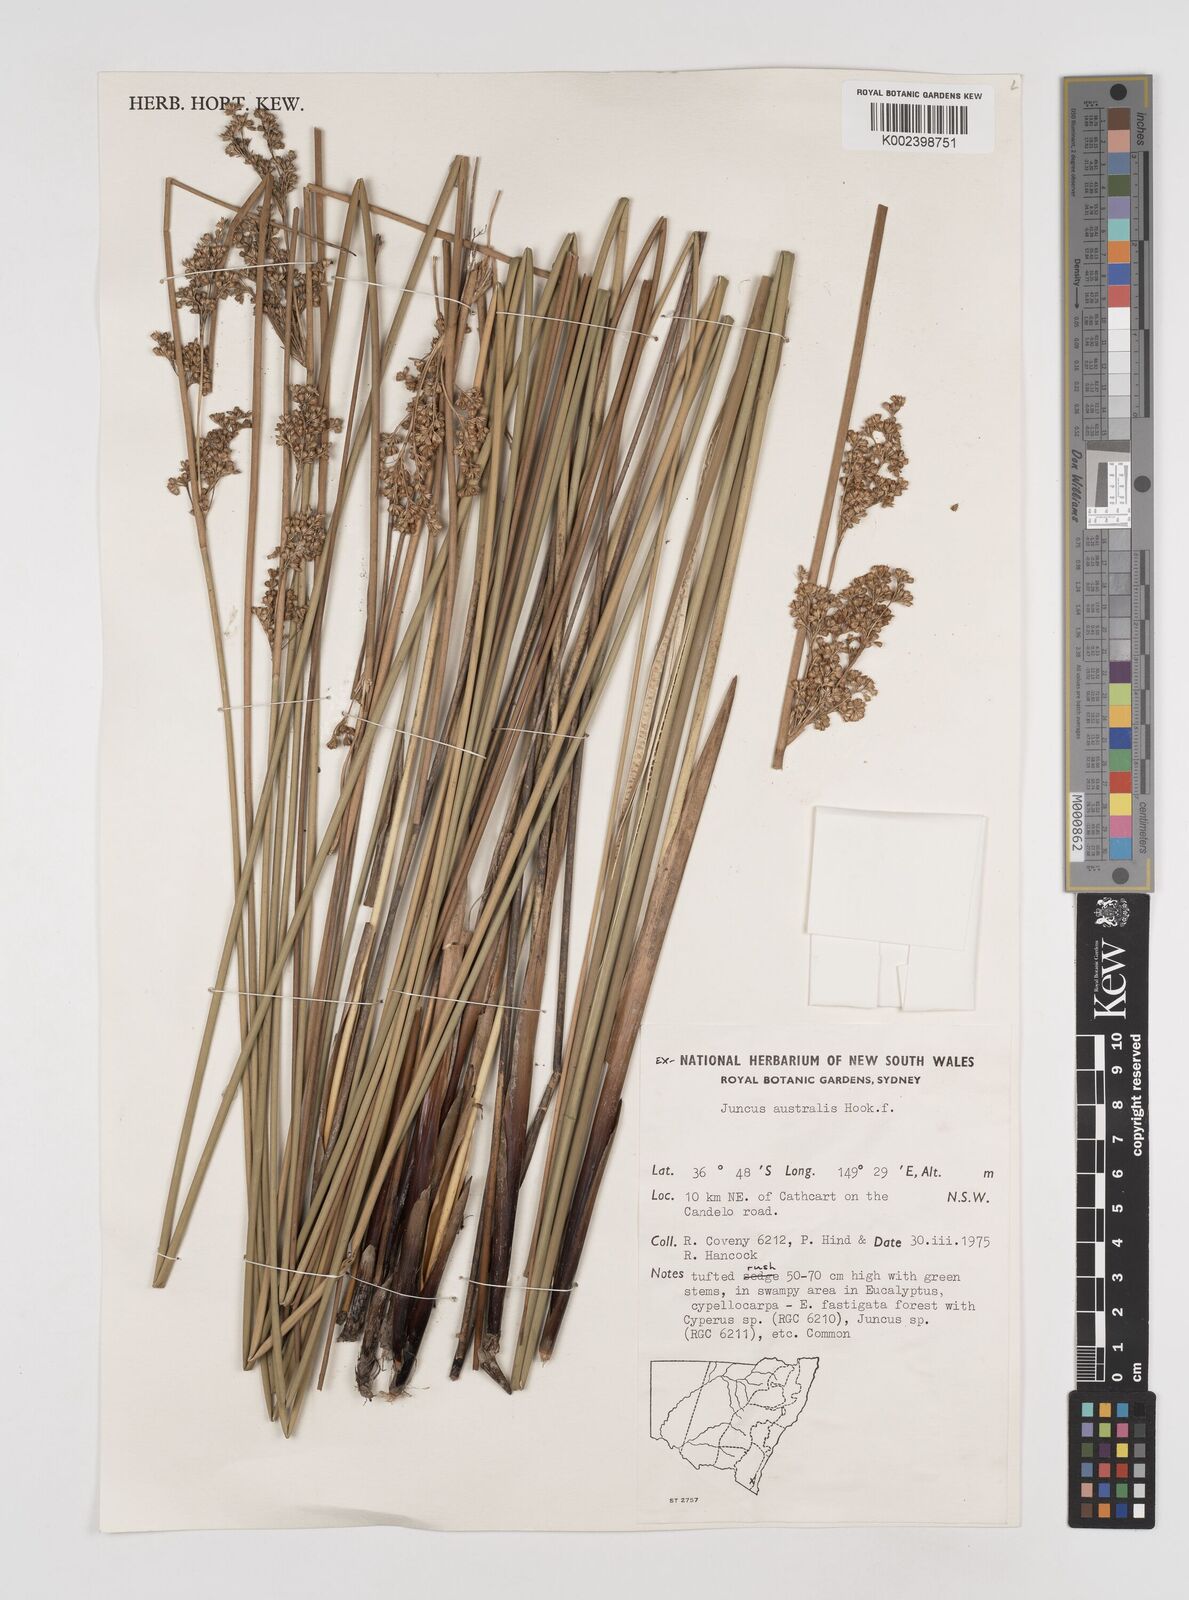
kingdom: Plantae
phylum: Tracheophyta
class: Liliopsida
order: Poales
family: Juncaceae
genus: Juncus
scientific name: Juncus australis
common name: Austral rush
